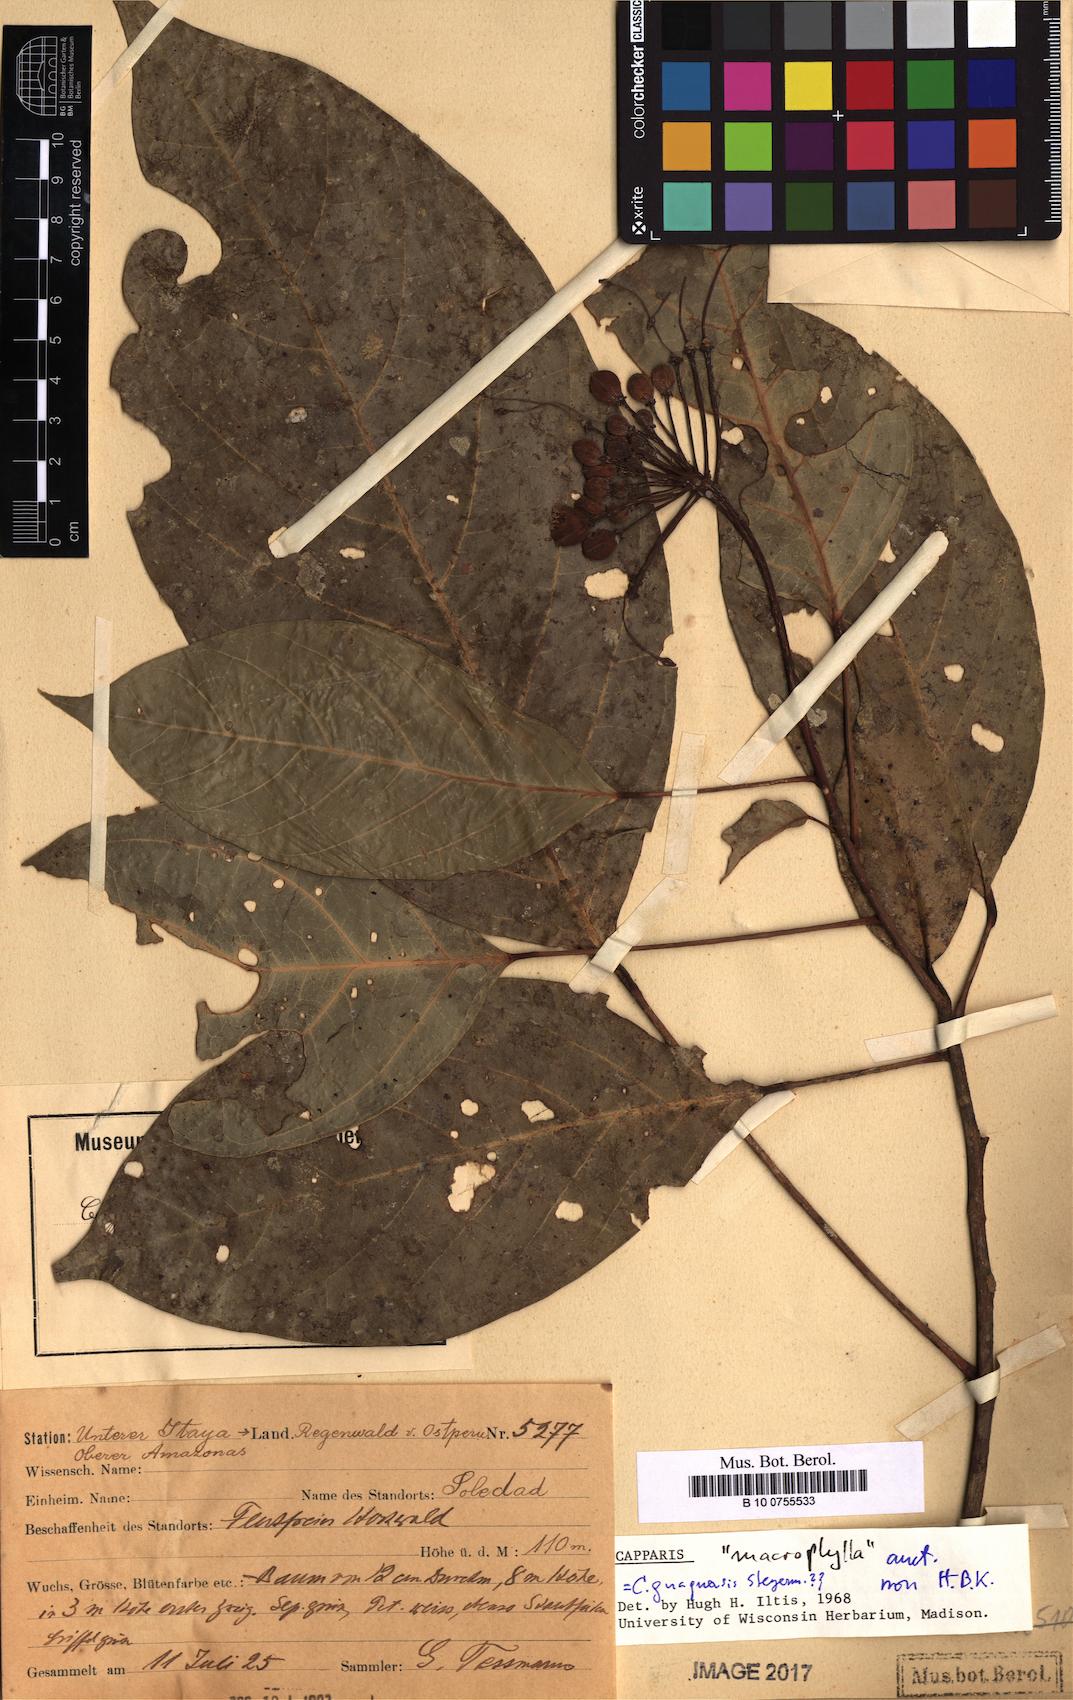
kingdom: Plantae
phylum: Tracheophyta
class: Magnoliopsida
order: Brassicales
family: Capparaceae
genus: Capparidastrum
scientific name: Capparidastrum macrophyllum
